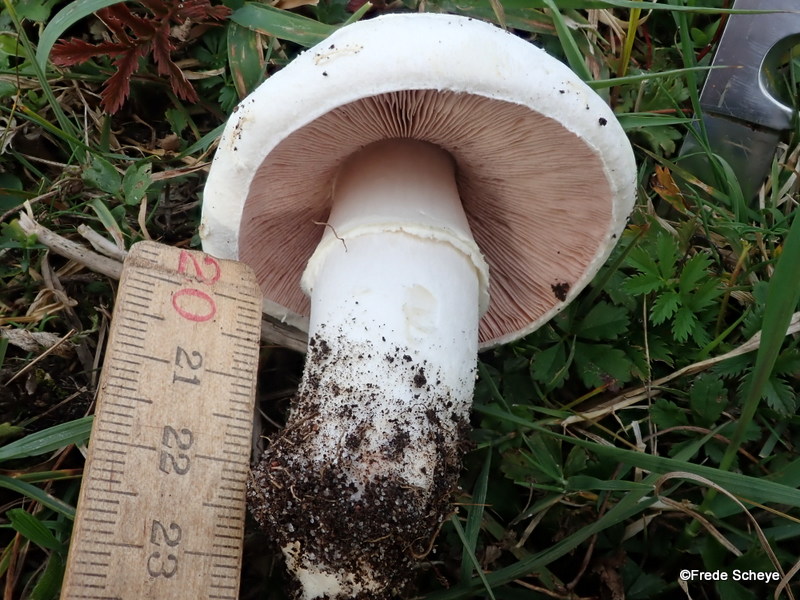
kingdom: Fungi
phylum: Basidiomycota
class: Agaricomycetes
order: Agaricales
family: Agaricaceae
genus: Agaricus
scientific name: Agaricus campestris
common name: mark-champignon
